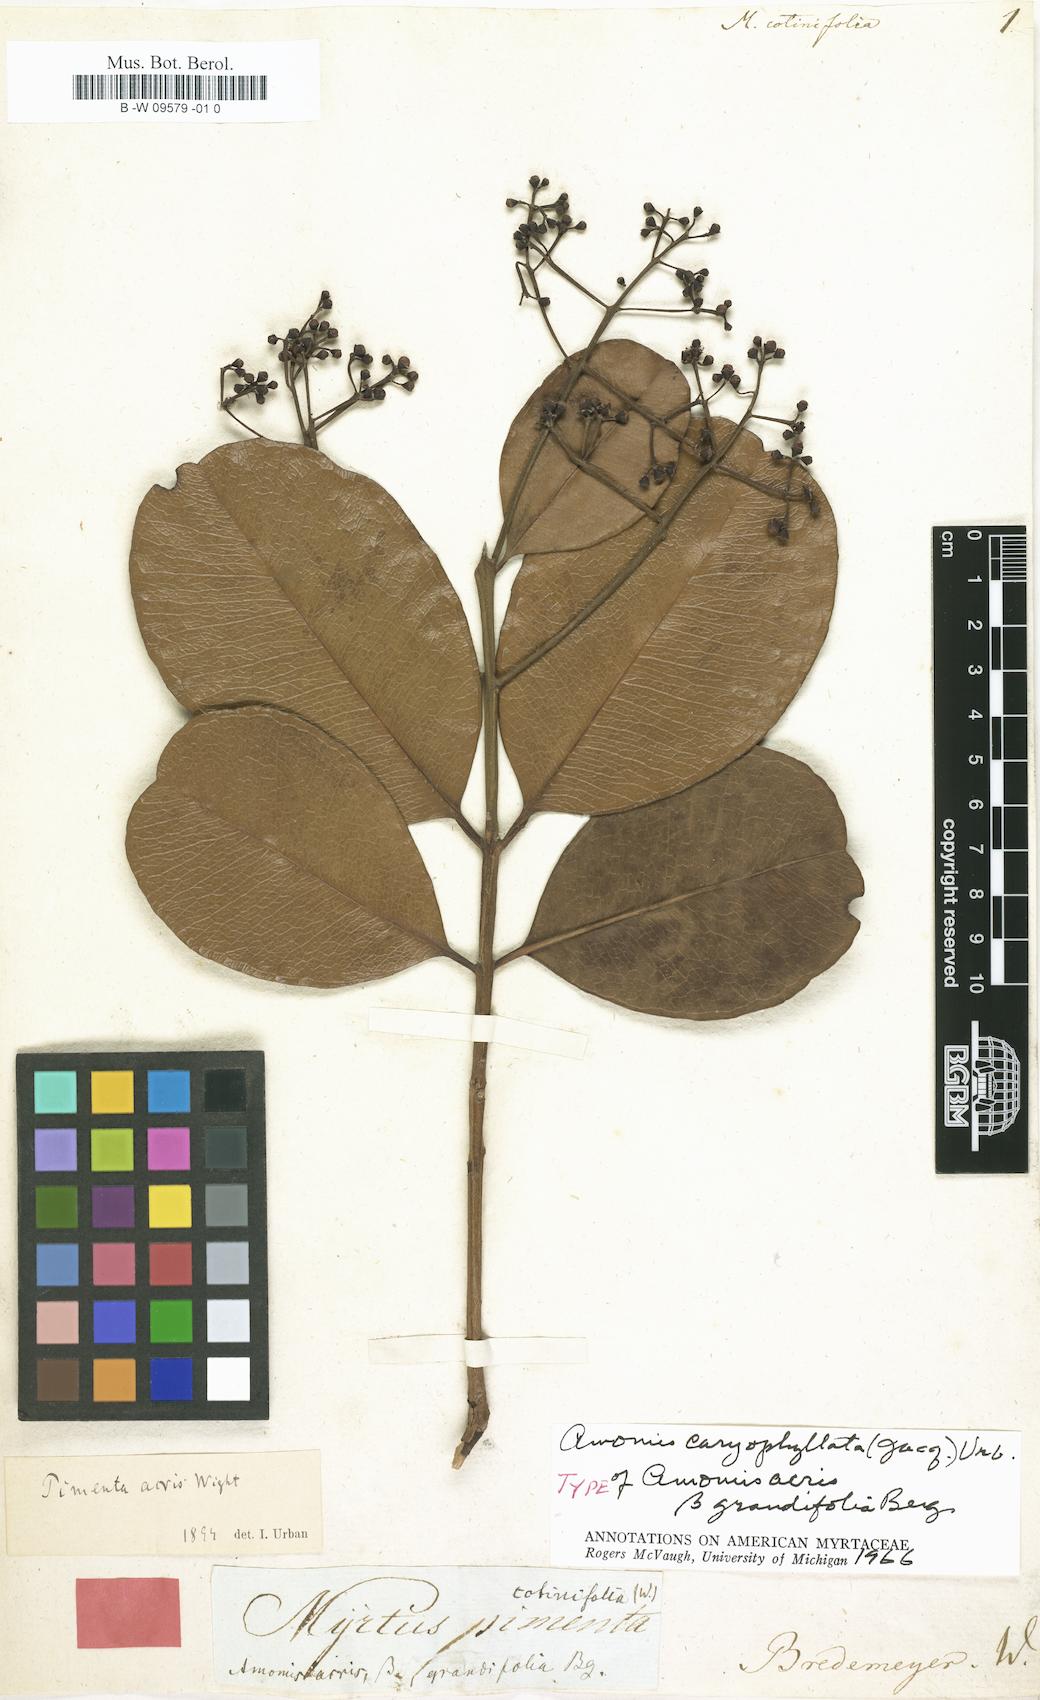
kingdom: Plantae
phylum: Tracheophyta
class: Magnoliopsida
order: Myrtales
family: Myrtaceae
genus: Myrtus
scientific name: Myrtus cotinifolia
